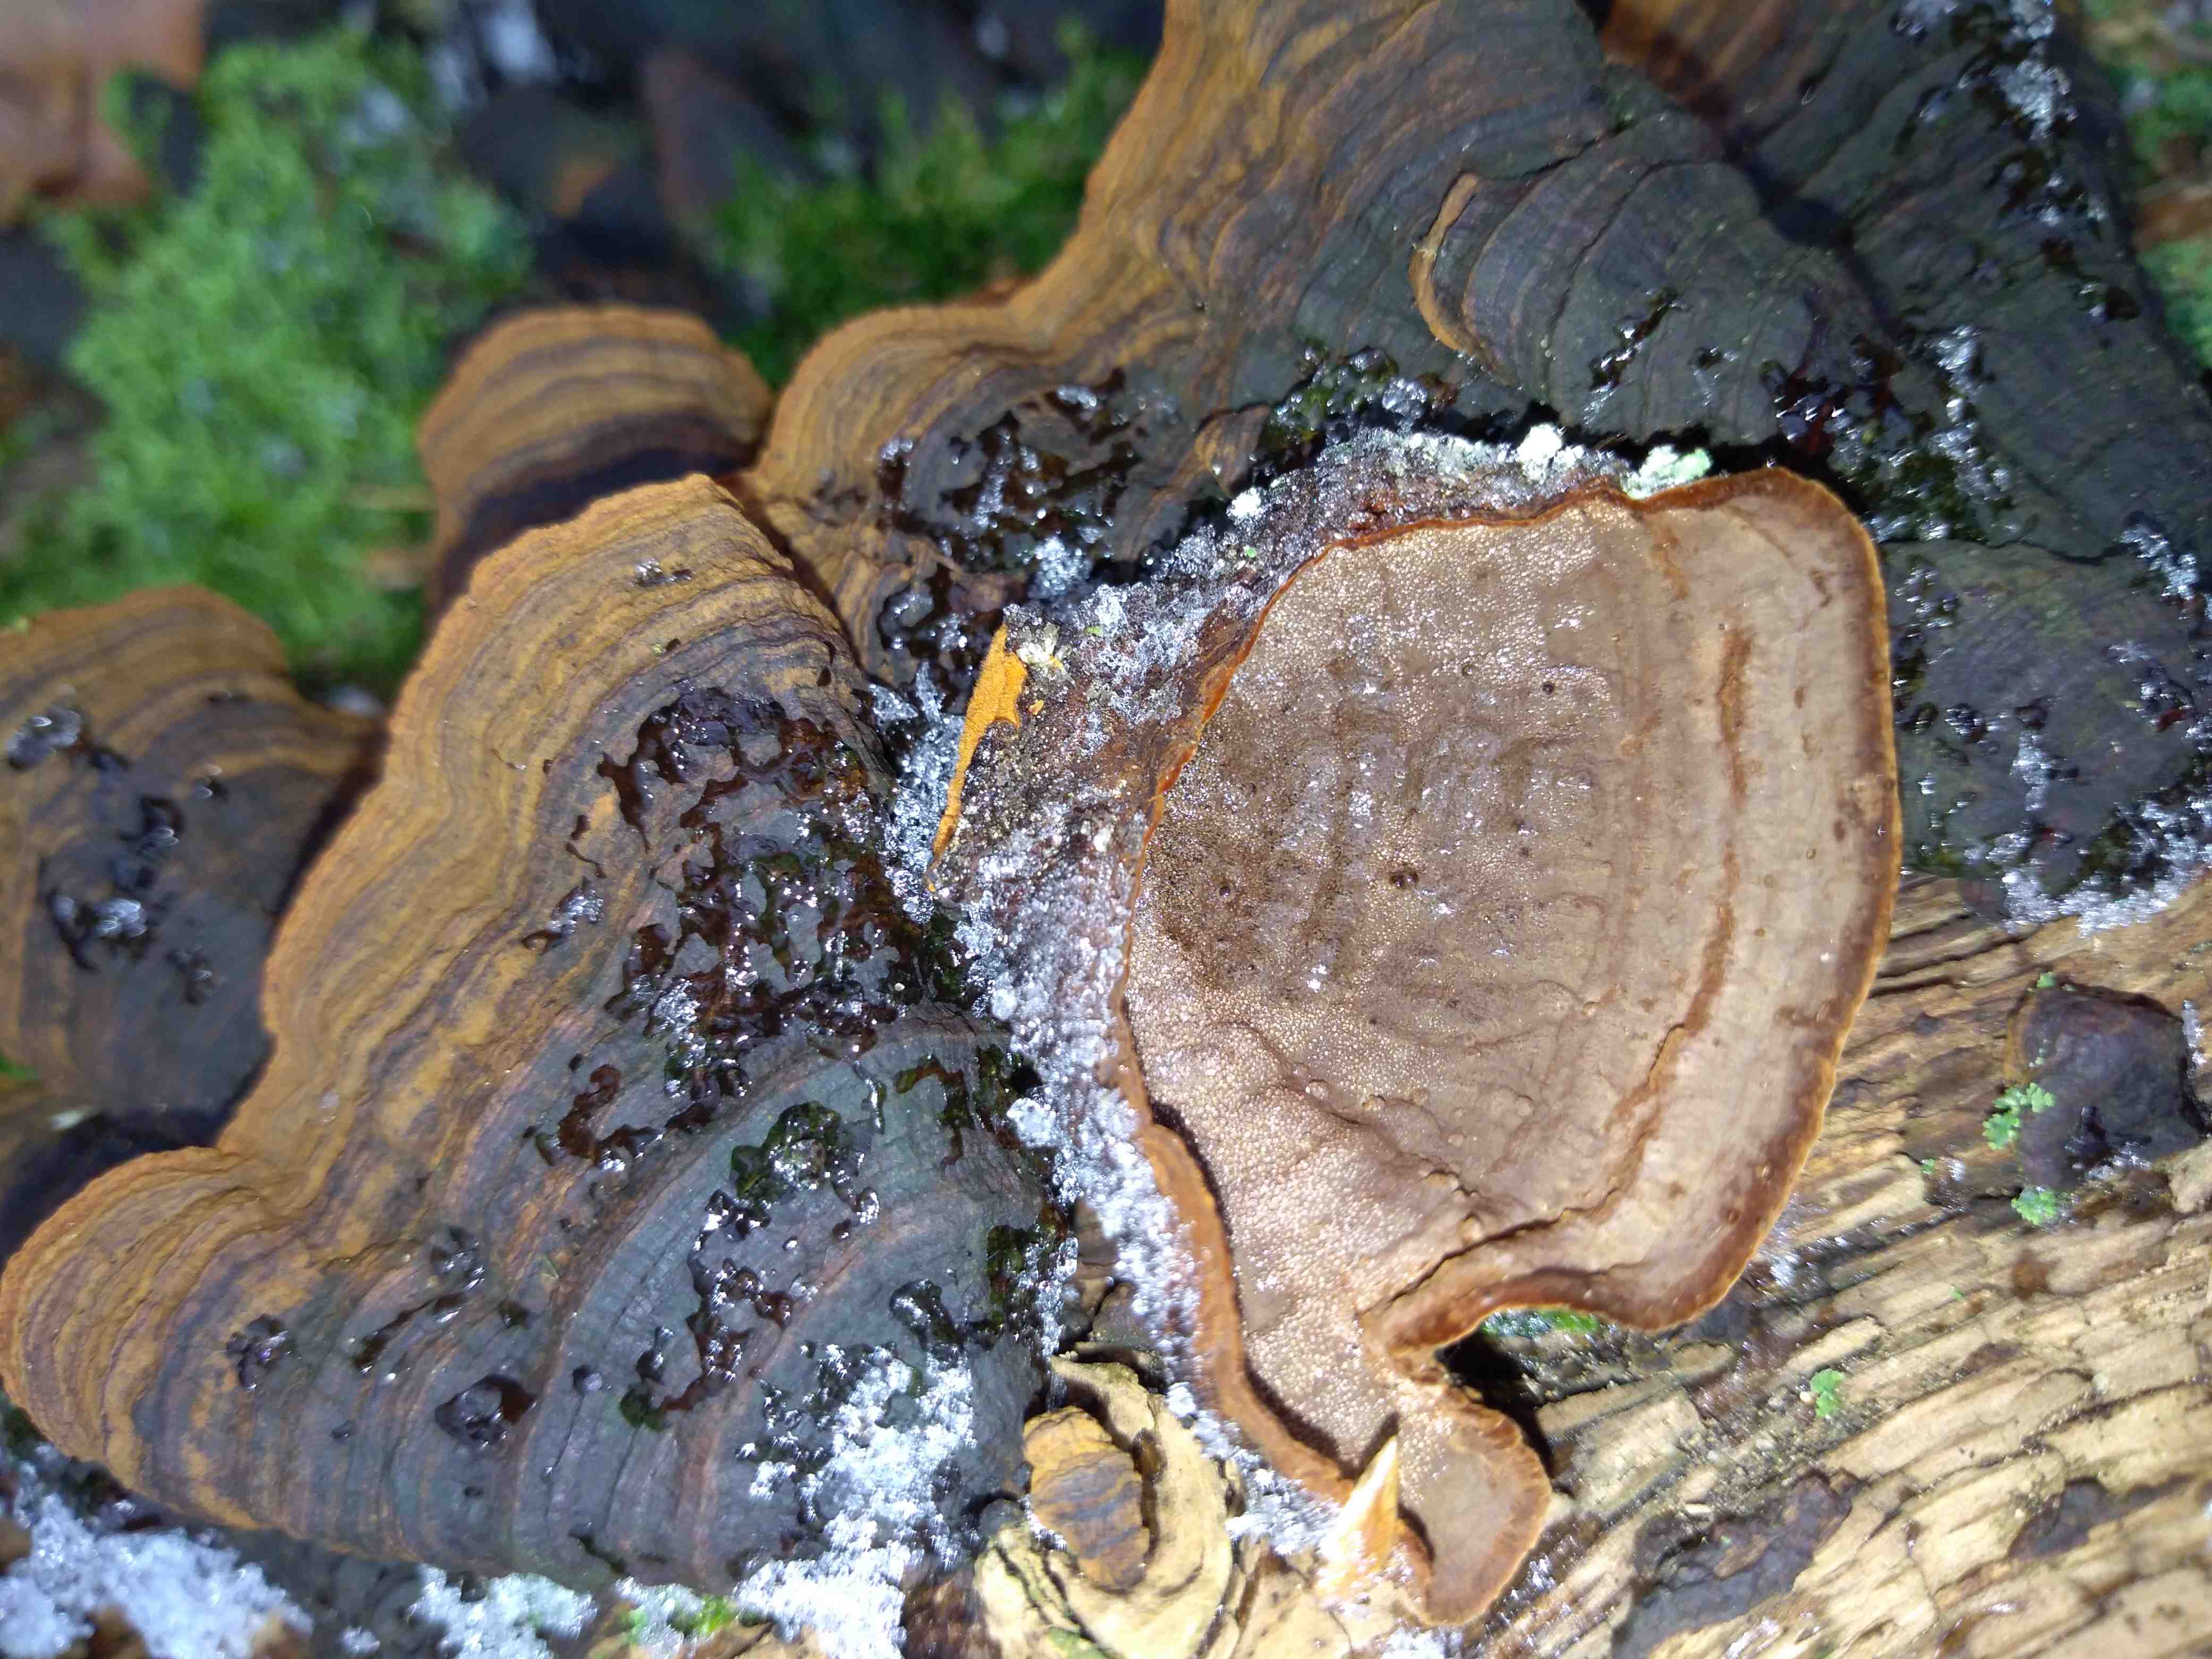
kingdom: Fungi
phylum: Basidiomycota
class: Agaricomycetes
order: Hymenochaetales
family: Hymenochaetaceae
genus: Hymenochaete
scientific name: Hymenochaete rubiginosa
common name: stiv ruslædersvamp
